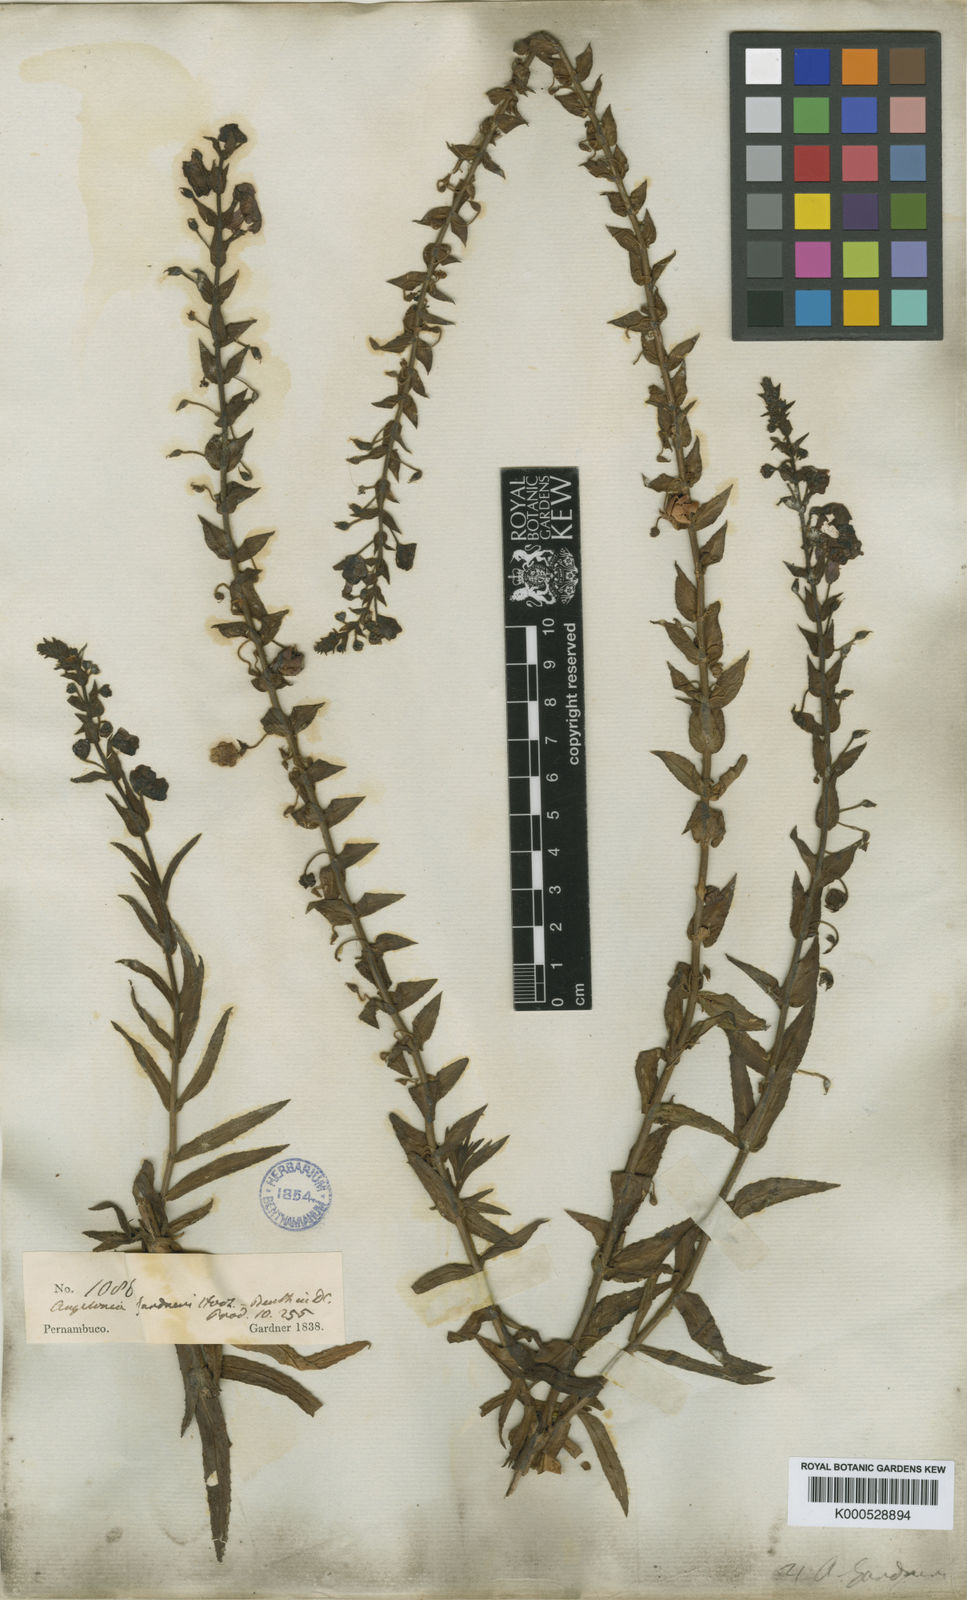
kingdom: Plantae
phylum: Tracheophyta
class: Magnoliopsida
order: Lamiales
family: Plantaginaceae
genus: Angelonia
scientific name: Angelonia salicariifolia
